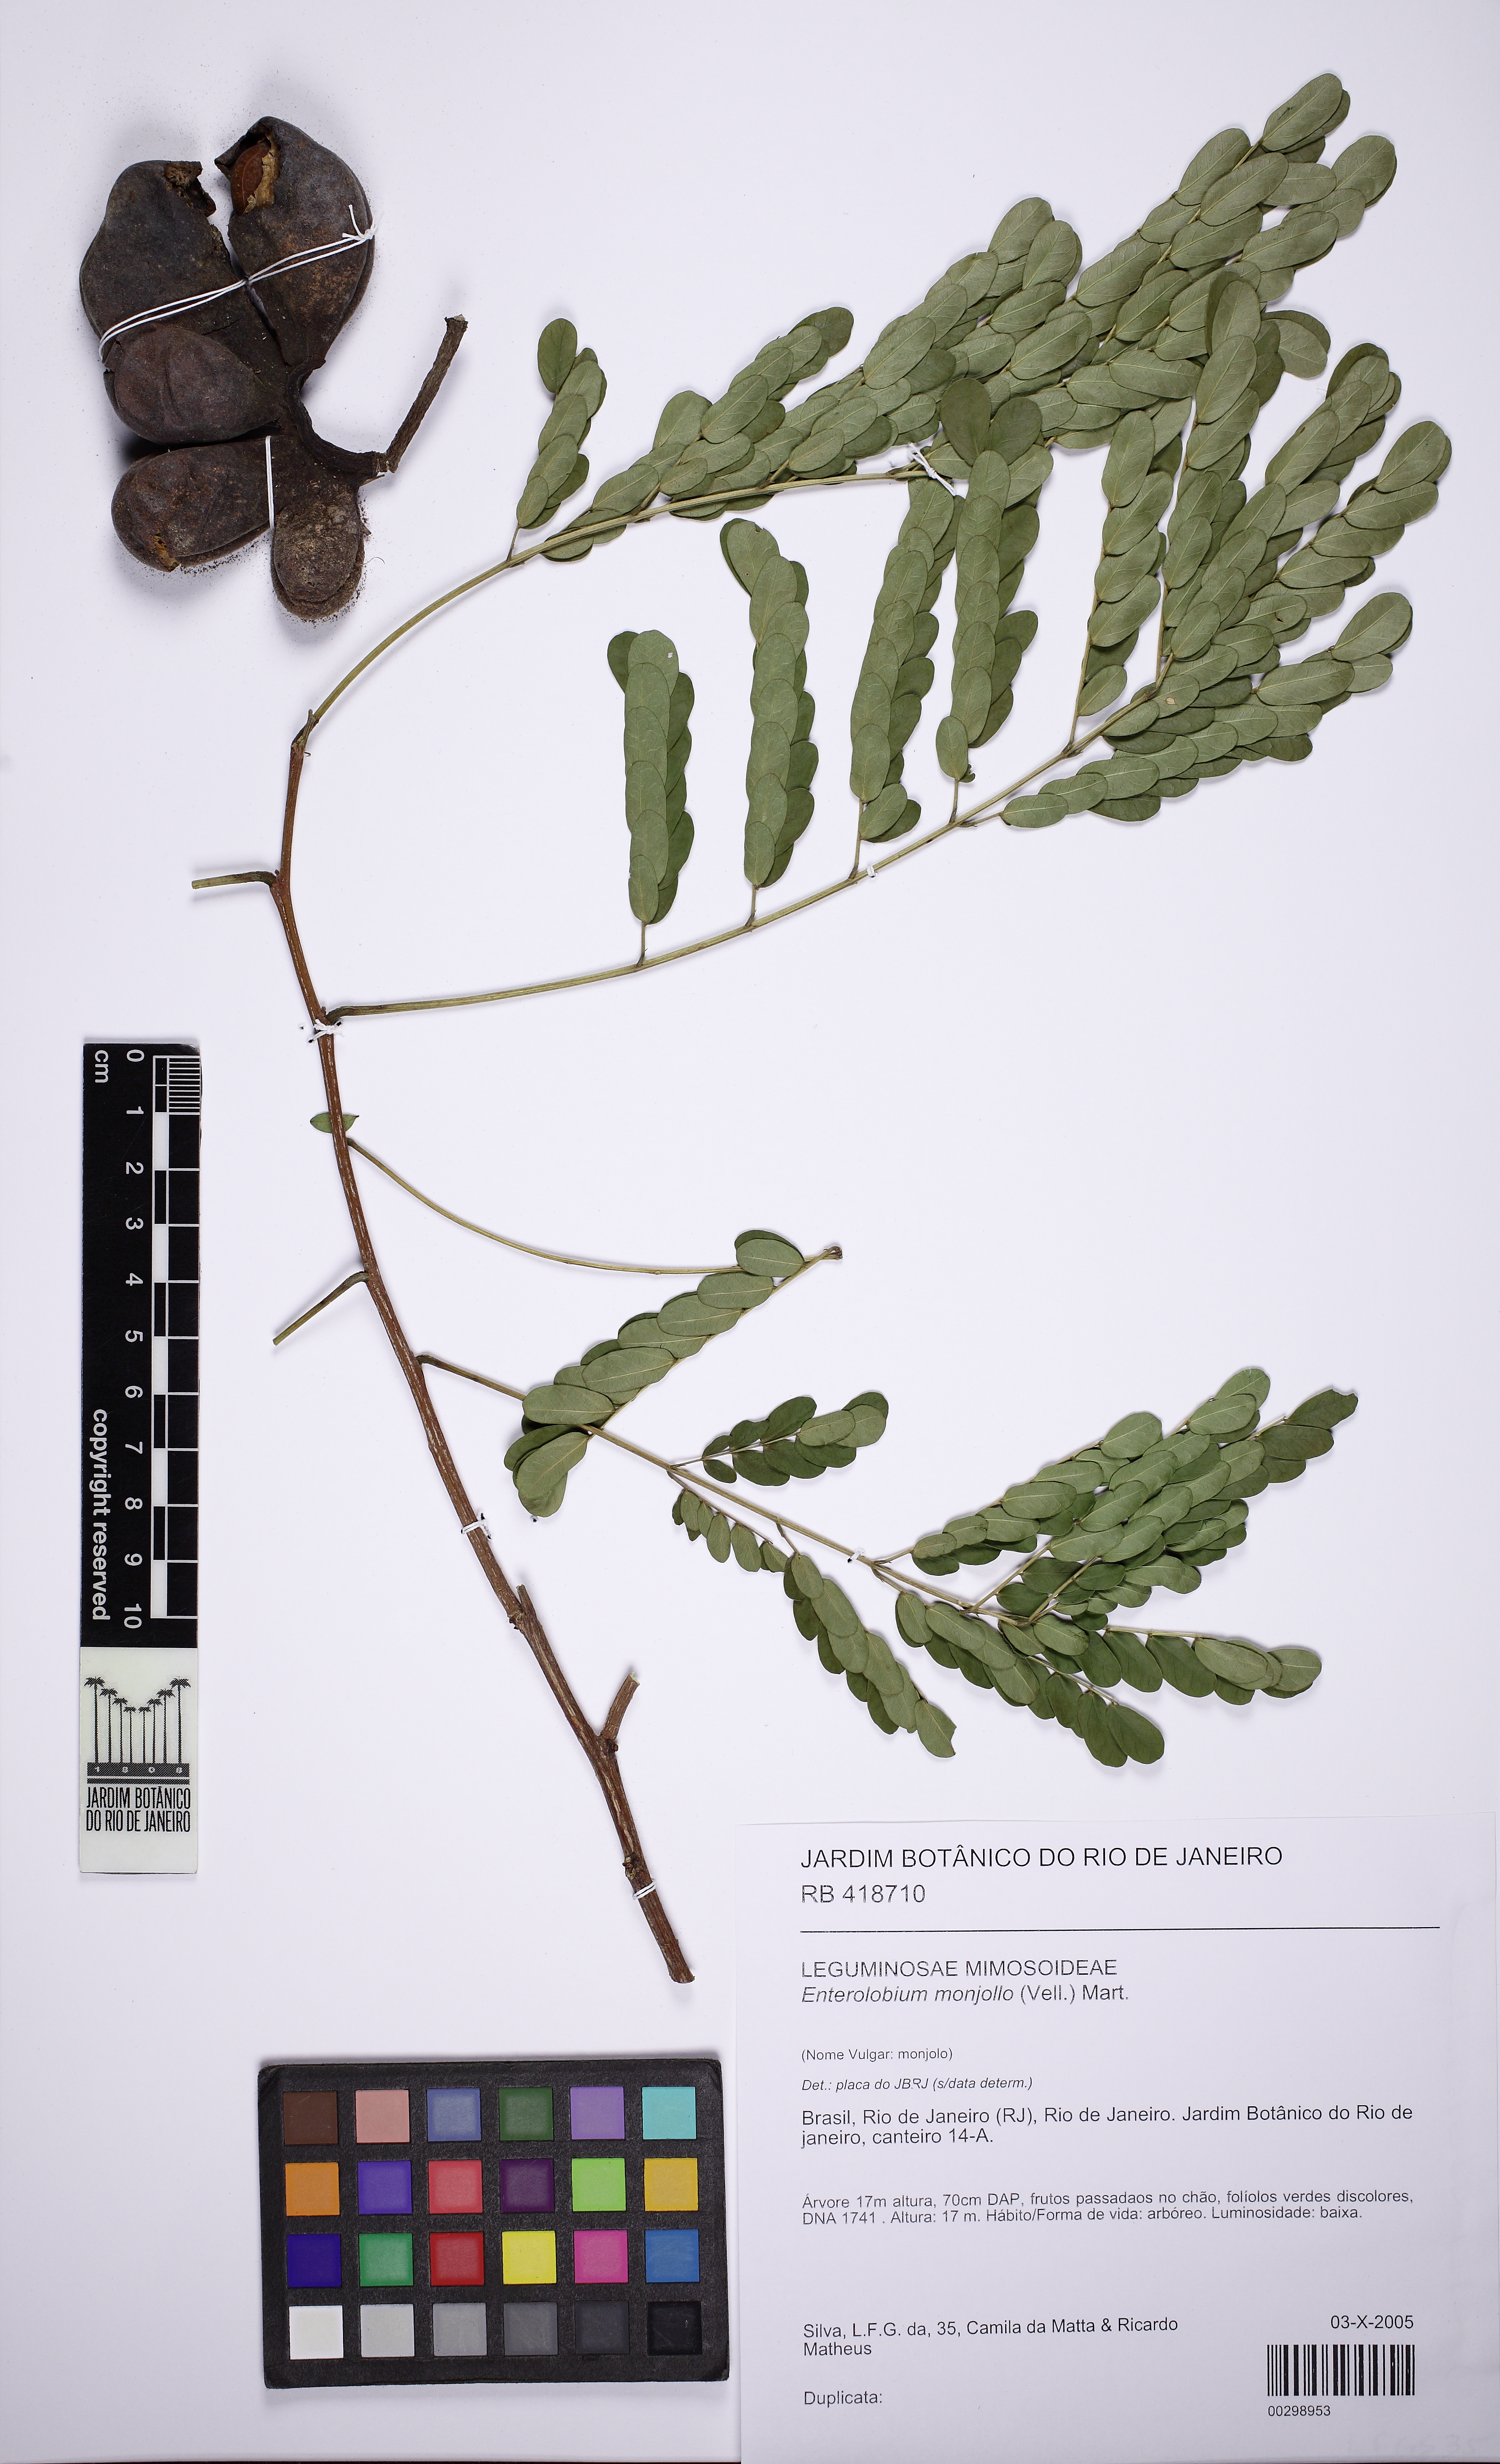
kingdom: Plantae
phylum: Tracheophyta
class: Magnoliopsida
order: Fabales
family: Fabaceae
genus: Enterolobium
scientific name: Enterolobium monjollo
